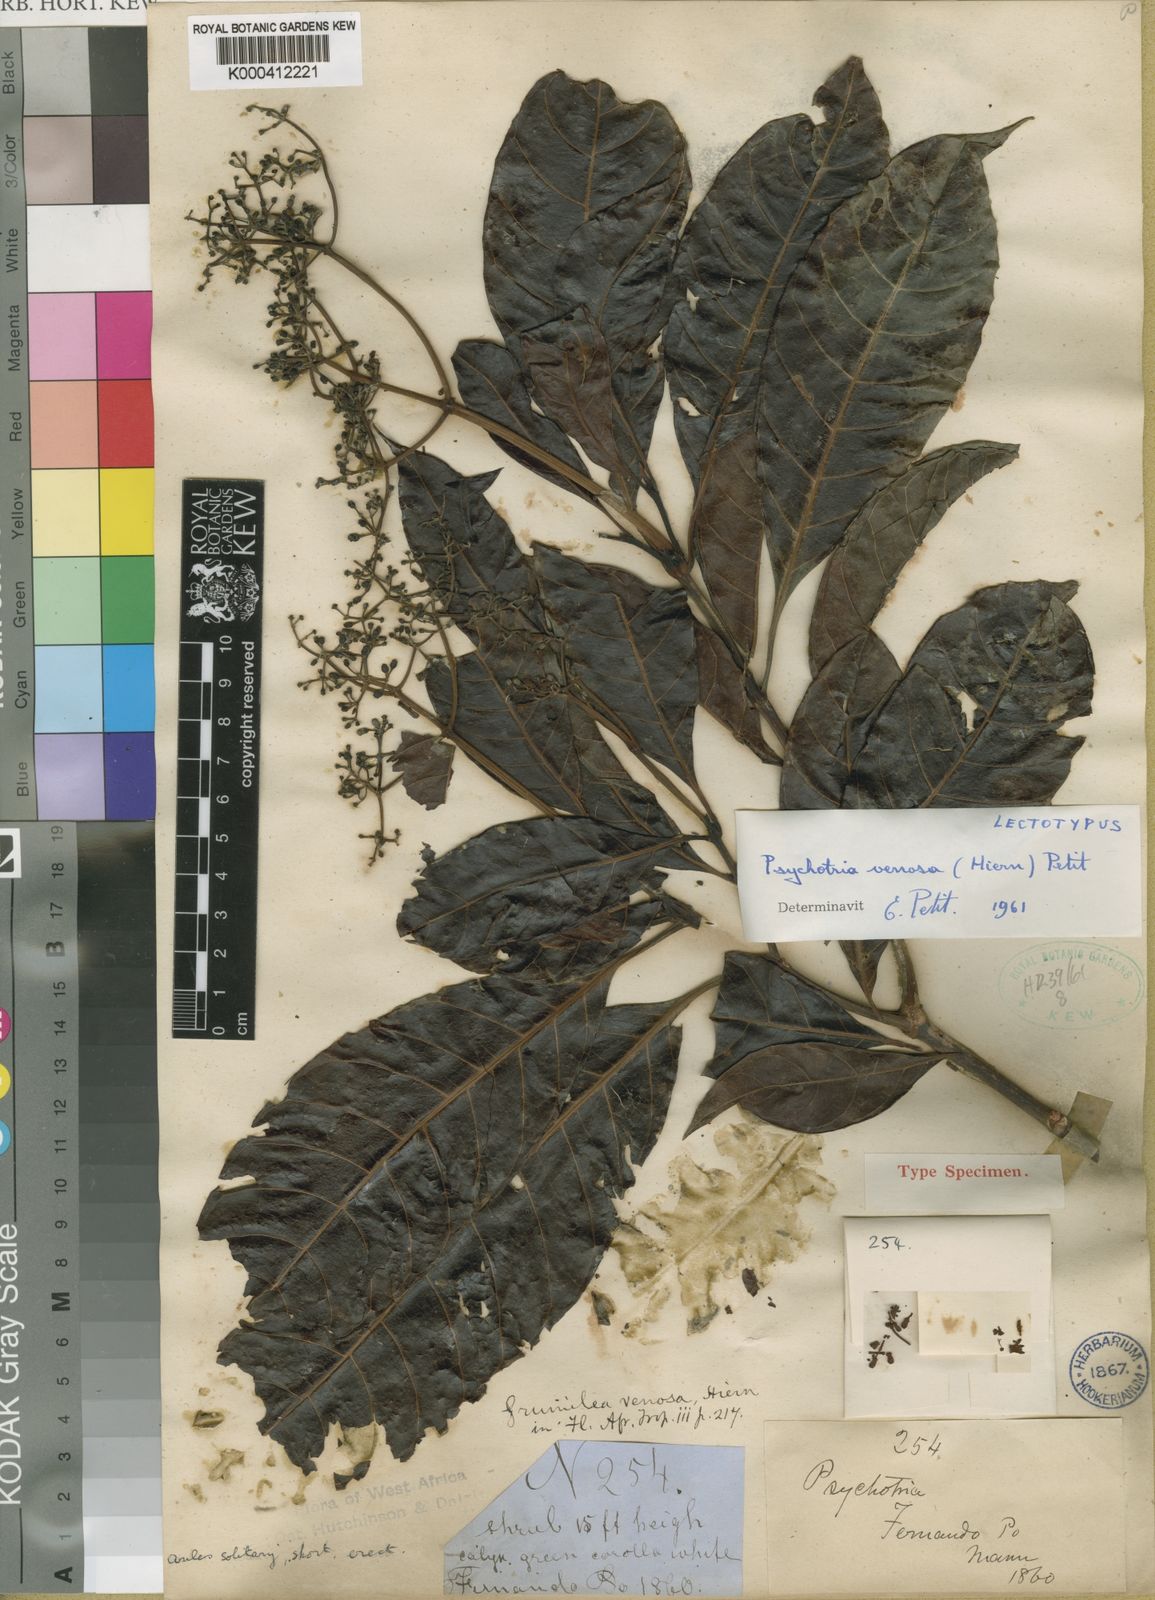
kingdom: Plantae
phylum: Tracheophyta
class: Magnoliopsida
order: Gentianales
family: Rubiaceae
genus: Psychotria
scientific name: Psychotria venosa
